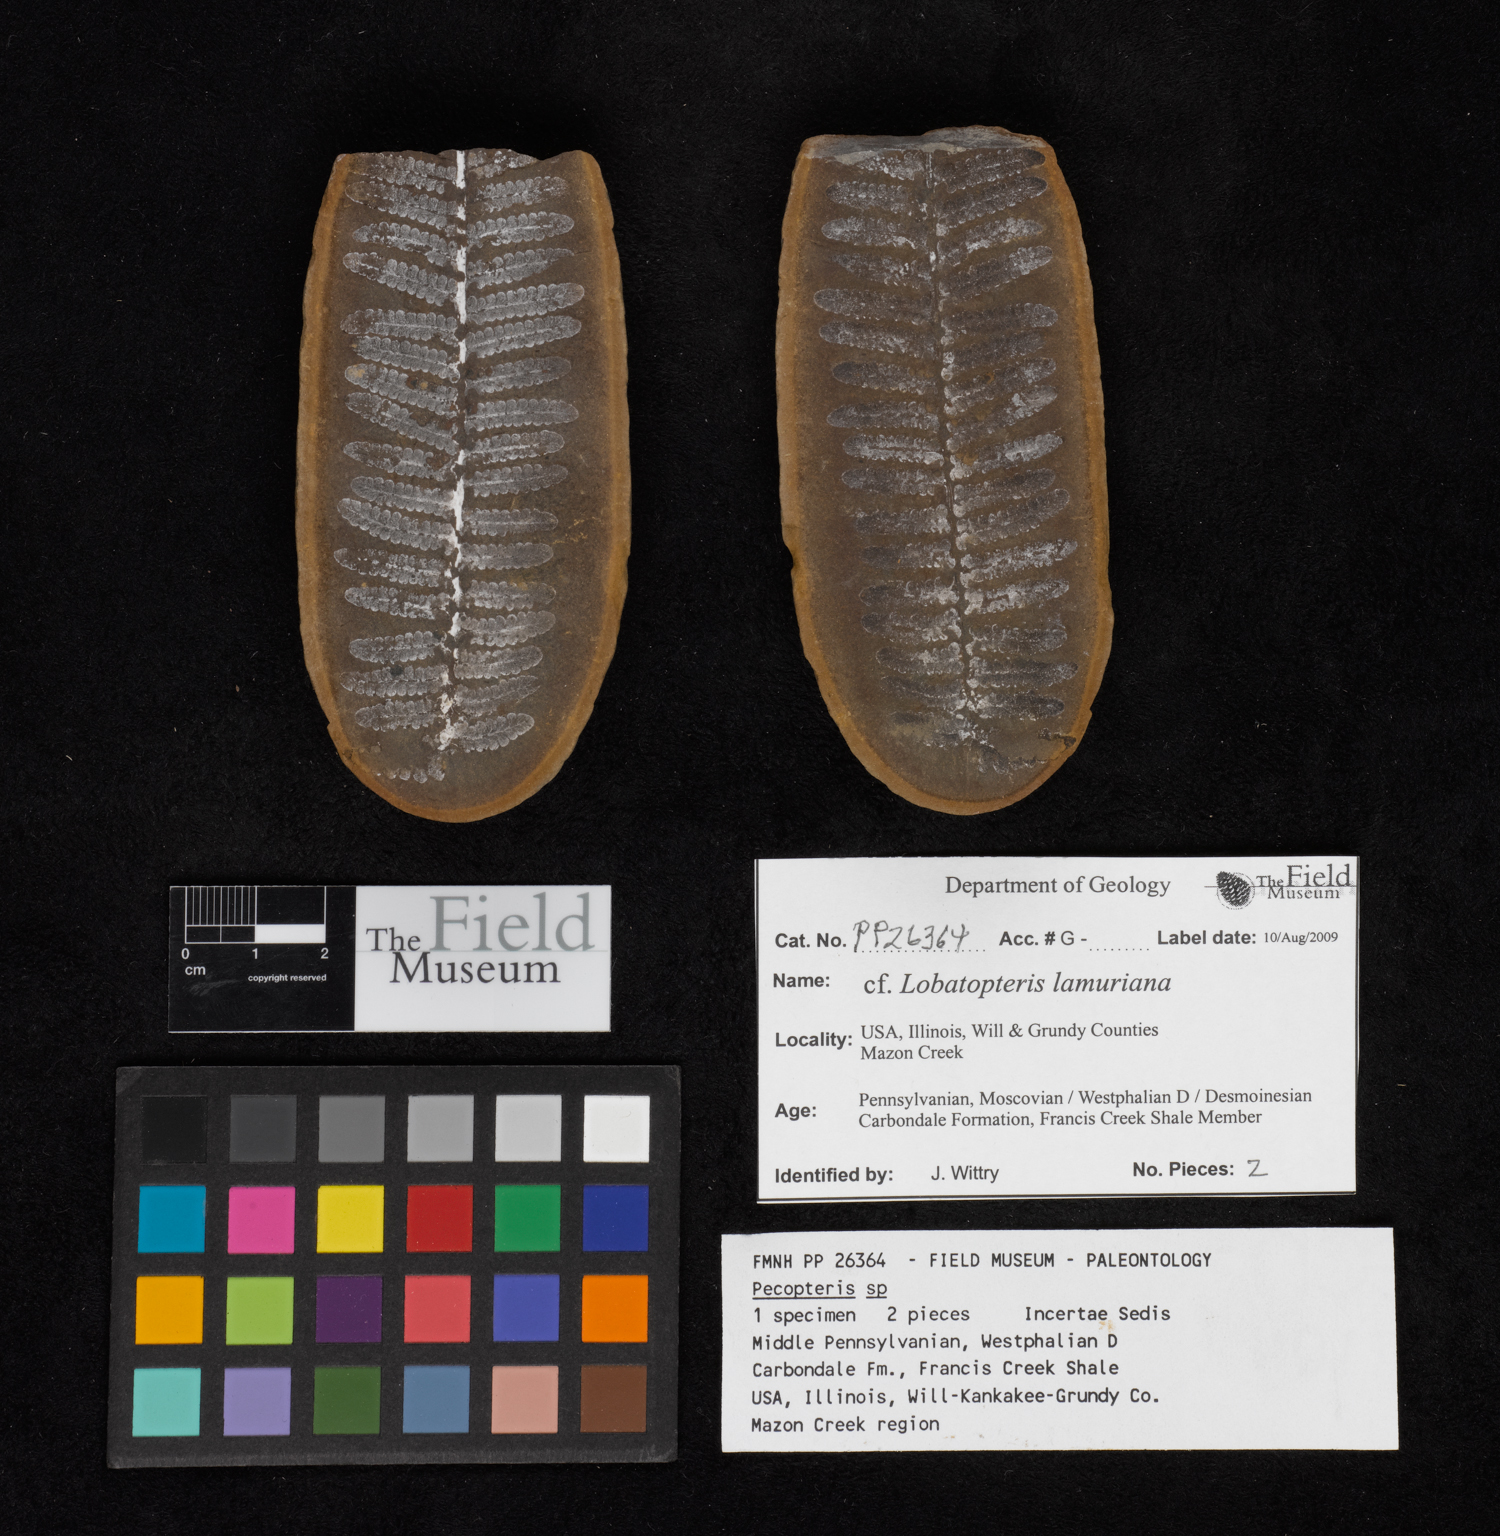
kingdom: Plantae
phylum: Tracheophyta
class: Polypodiopsida
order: Marattiales
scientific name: Marattiales
